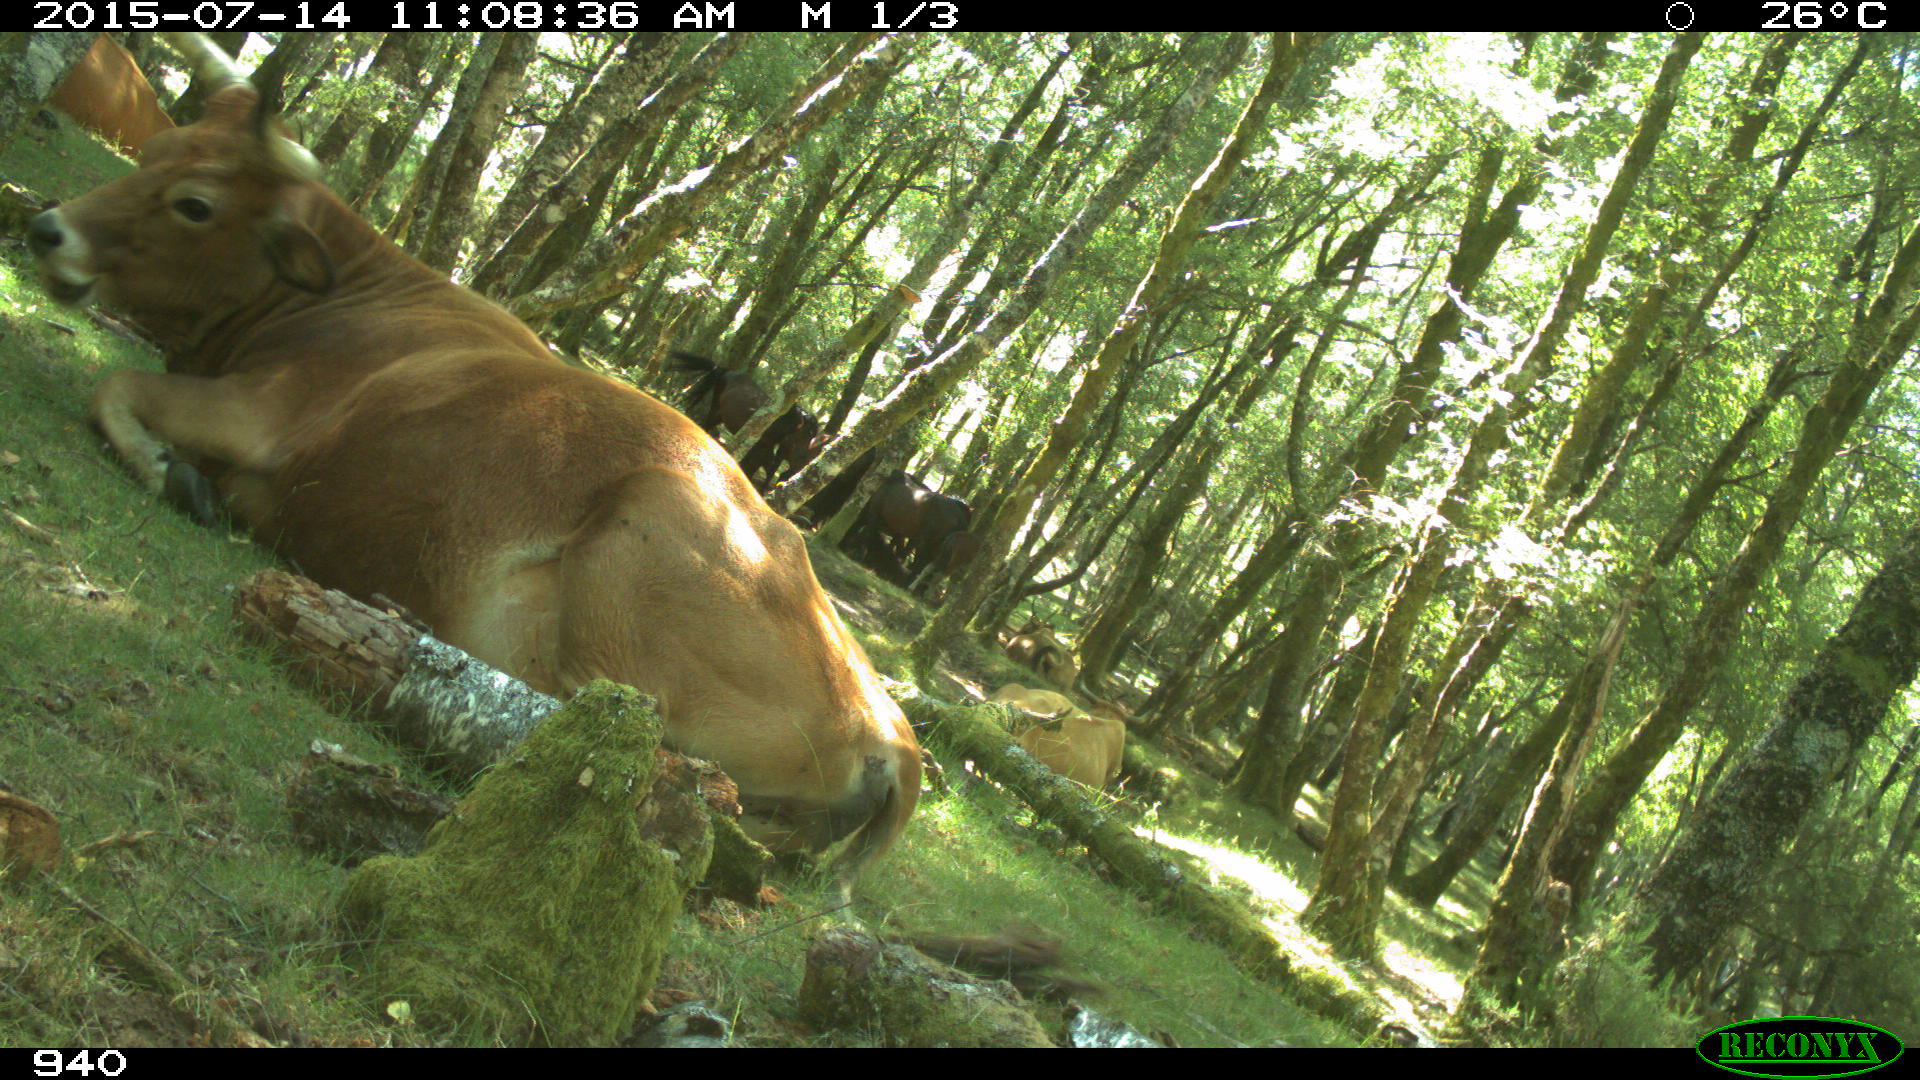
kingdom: Animalia
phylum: Chordata
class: Mammalia
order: Artiodactyla
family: Bovidae
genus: Bos
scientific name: Bos taurus
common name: Domesticated cattle
